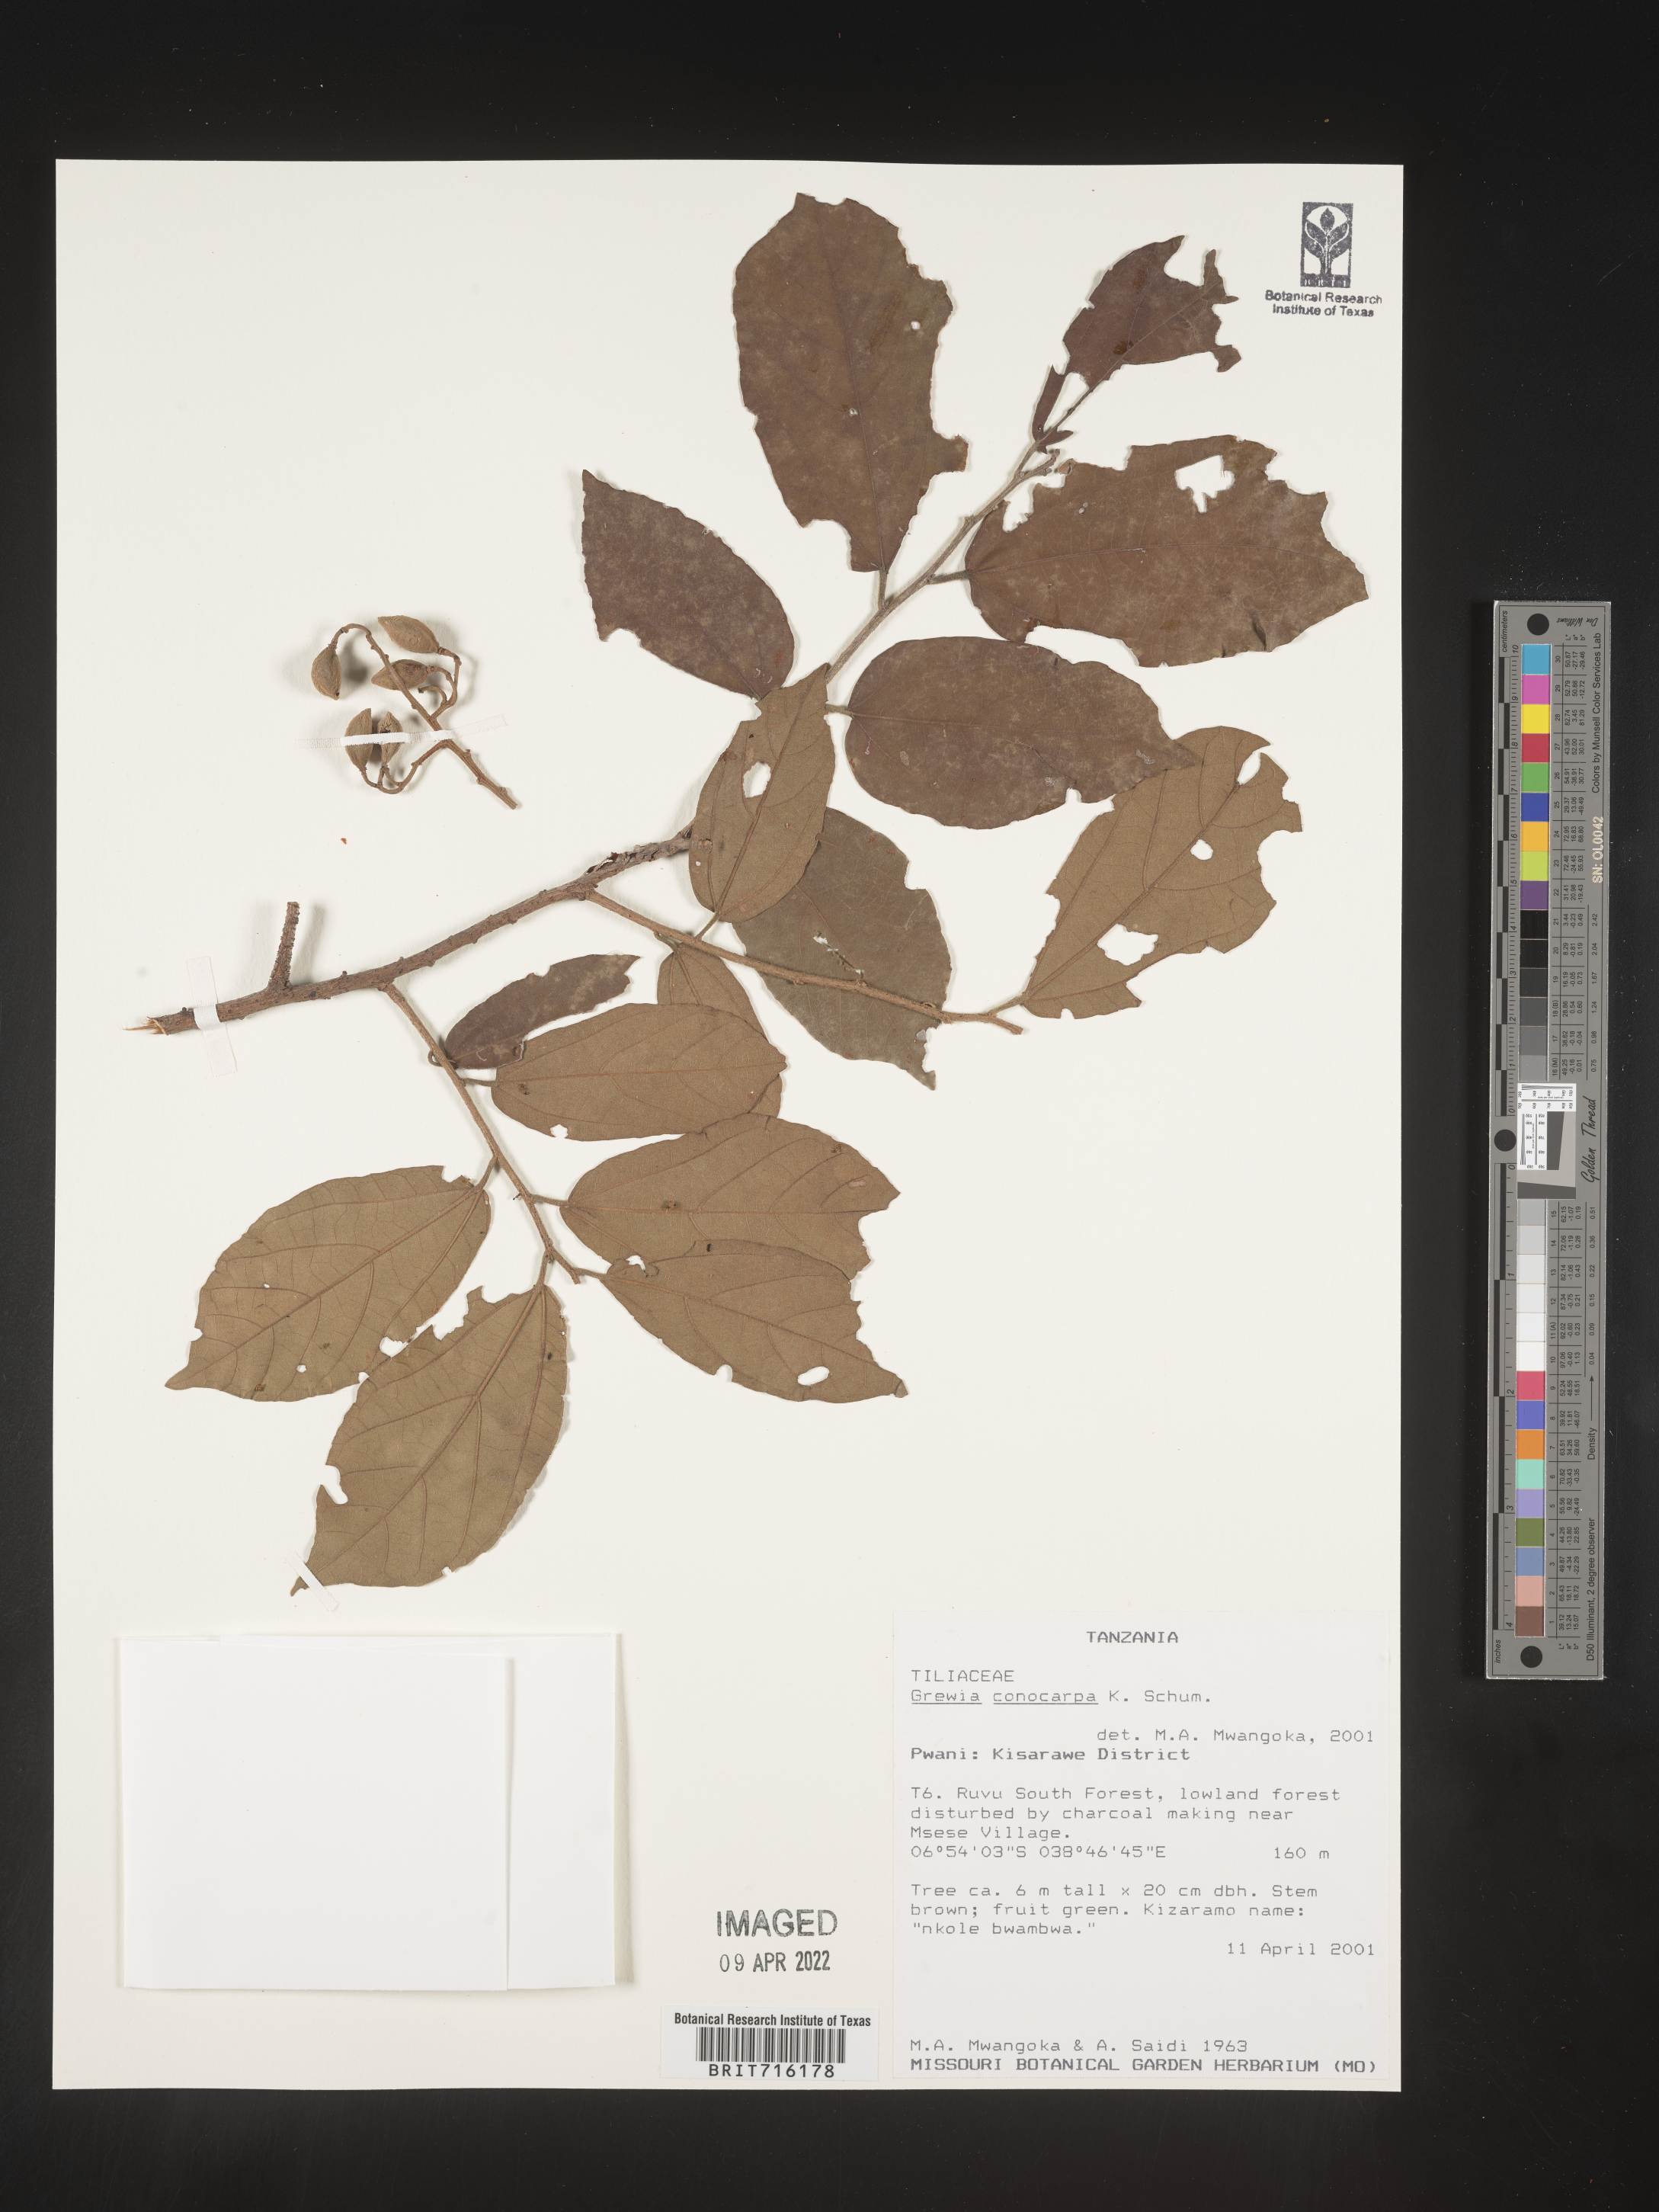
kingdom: Plantae
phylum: Tracheophyta
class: Magnoliopsida
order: Malvales
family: Malvaceae
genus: Grewia
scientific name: Grewia
